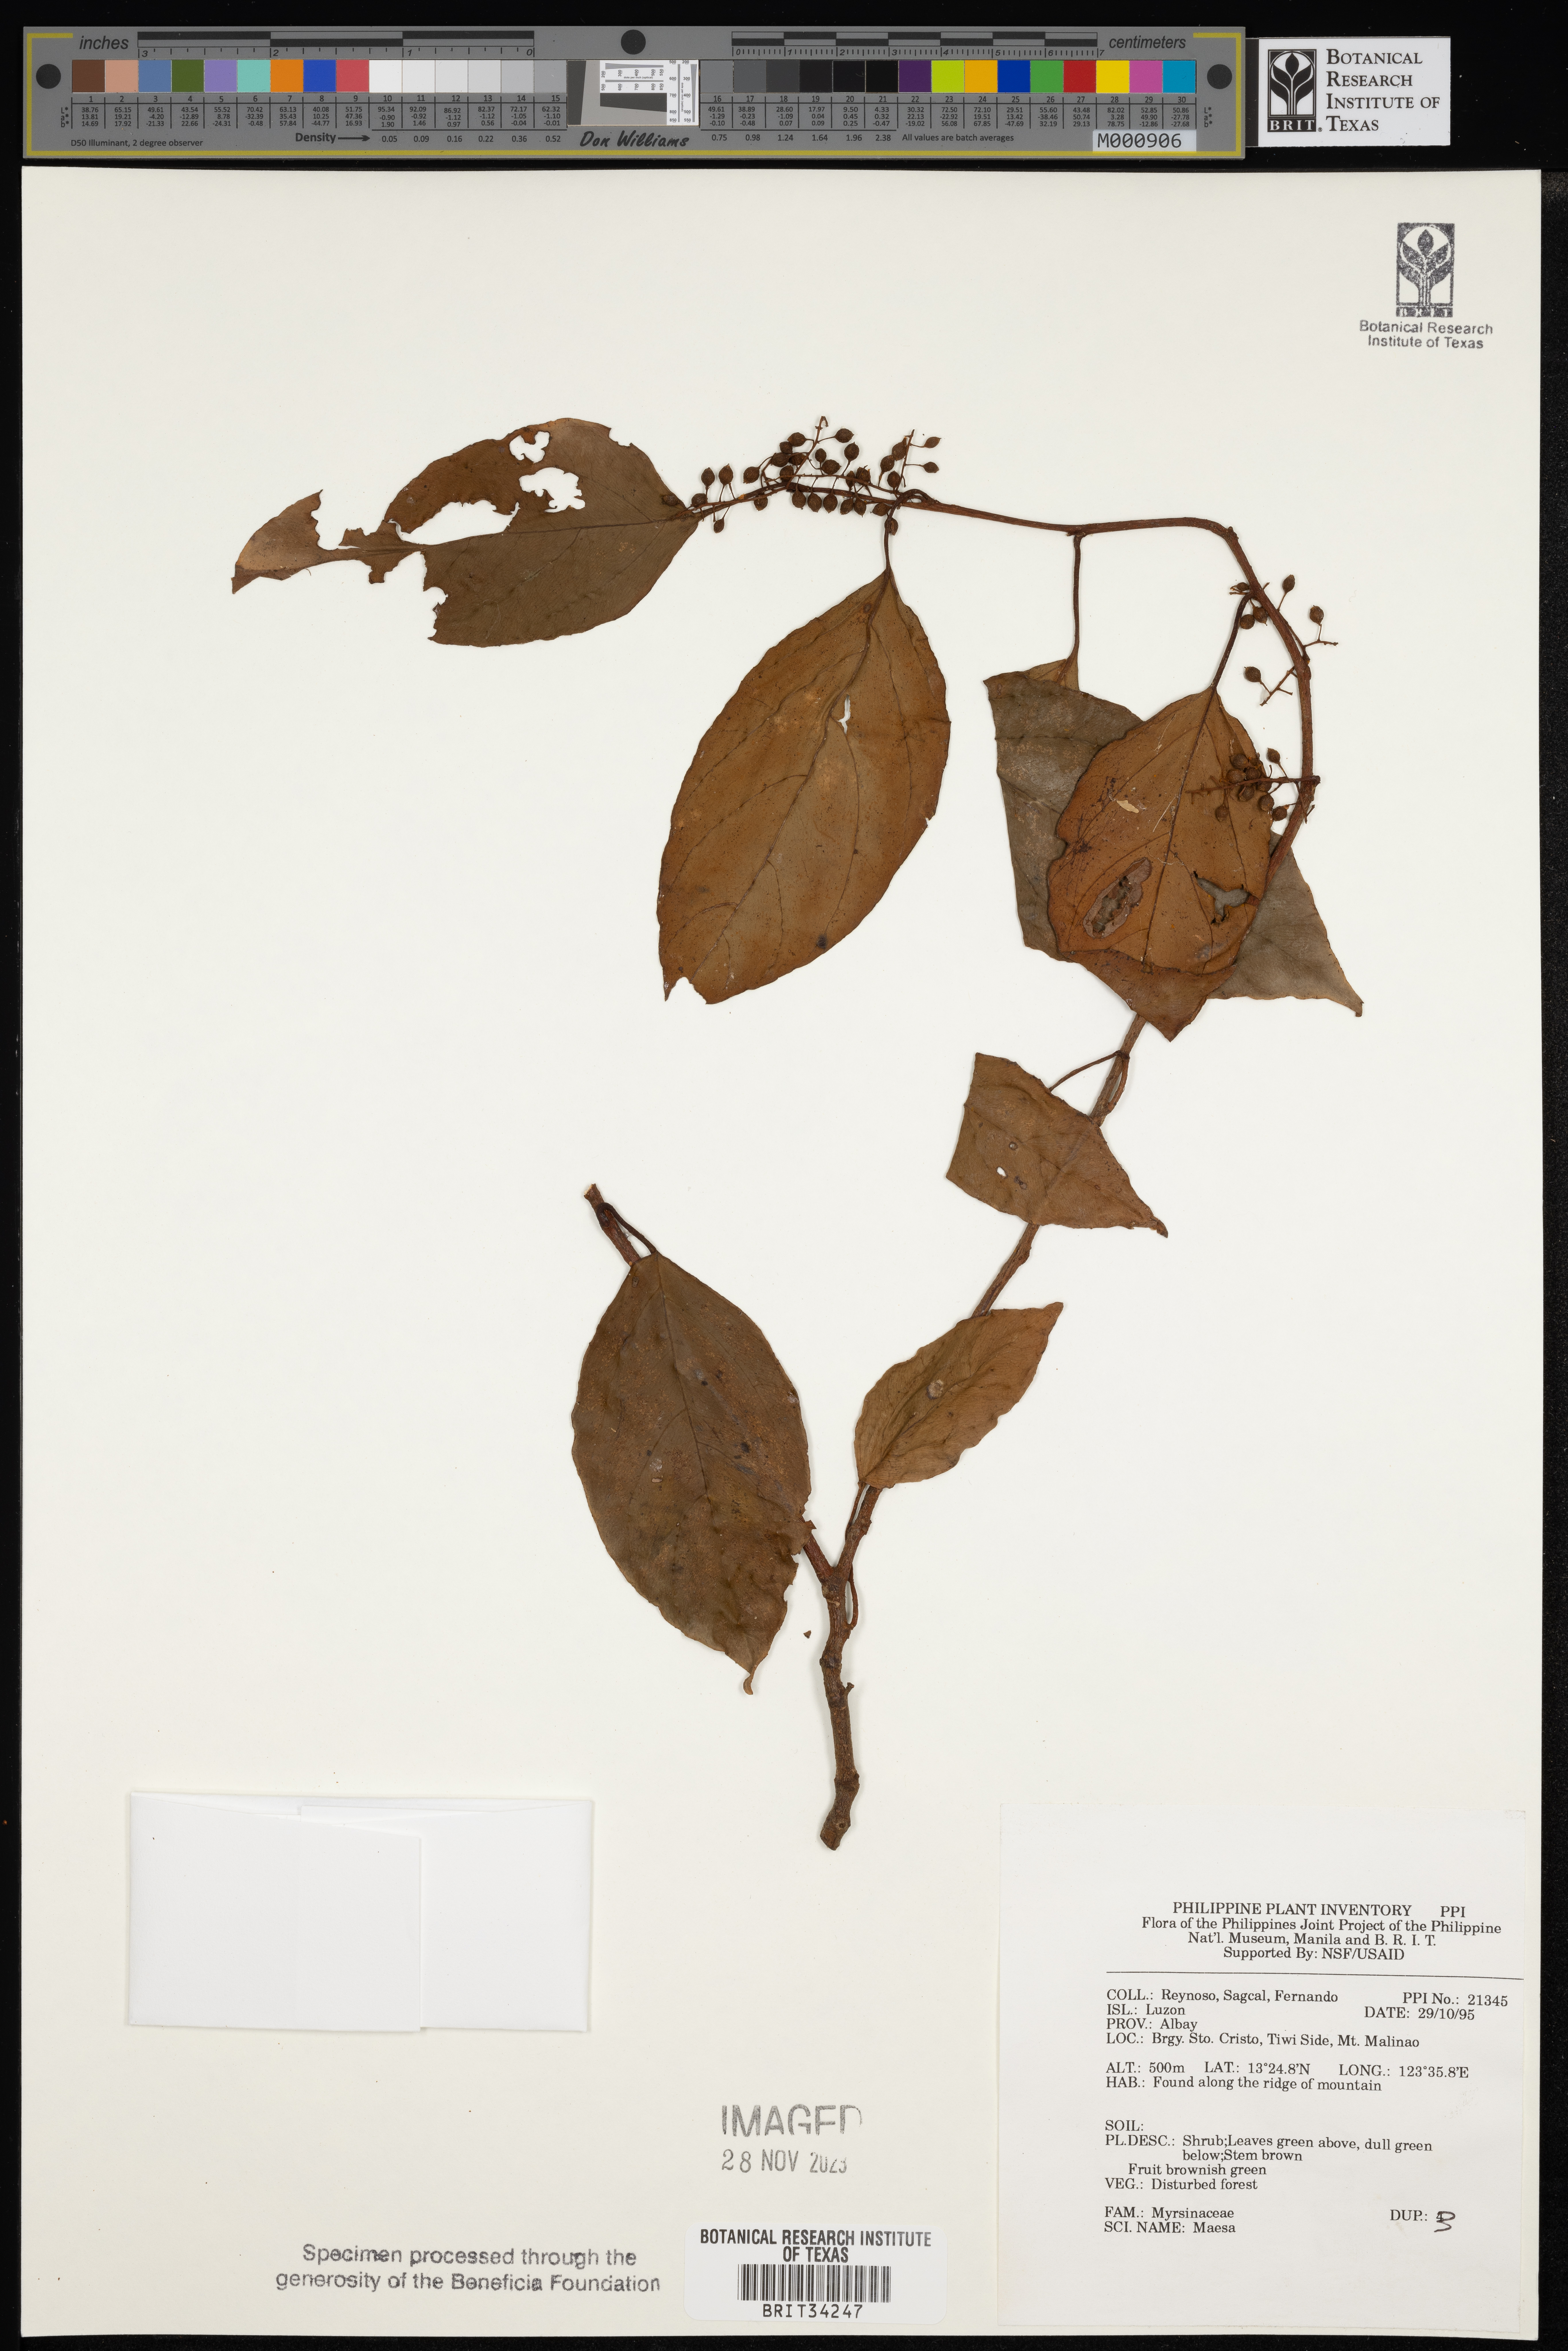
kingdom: Plantae
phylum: Tracheophyta
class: Magnoliopsida
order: Ericales
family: Primulaceae
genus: Maesa
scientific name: Maesa
